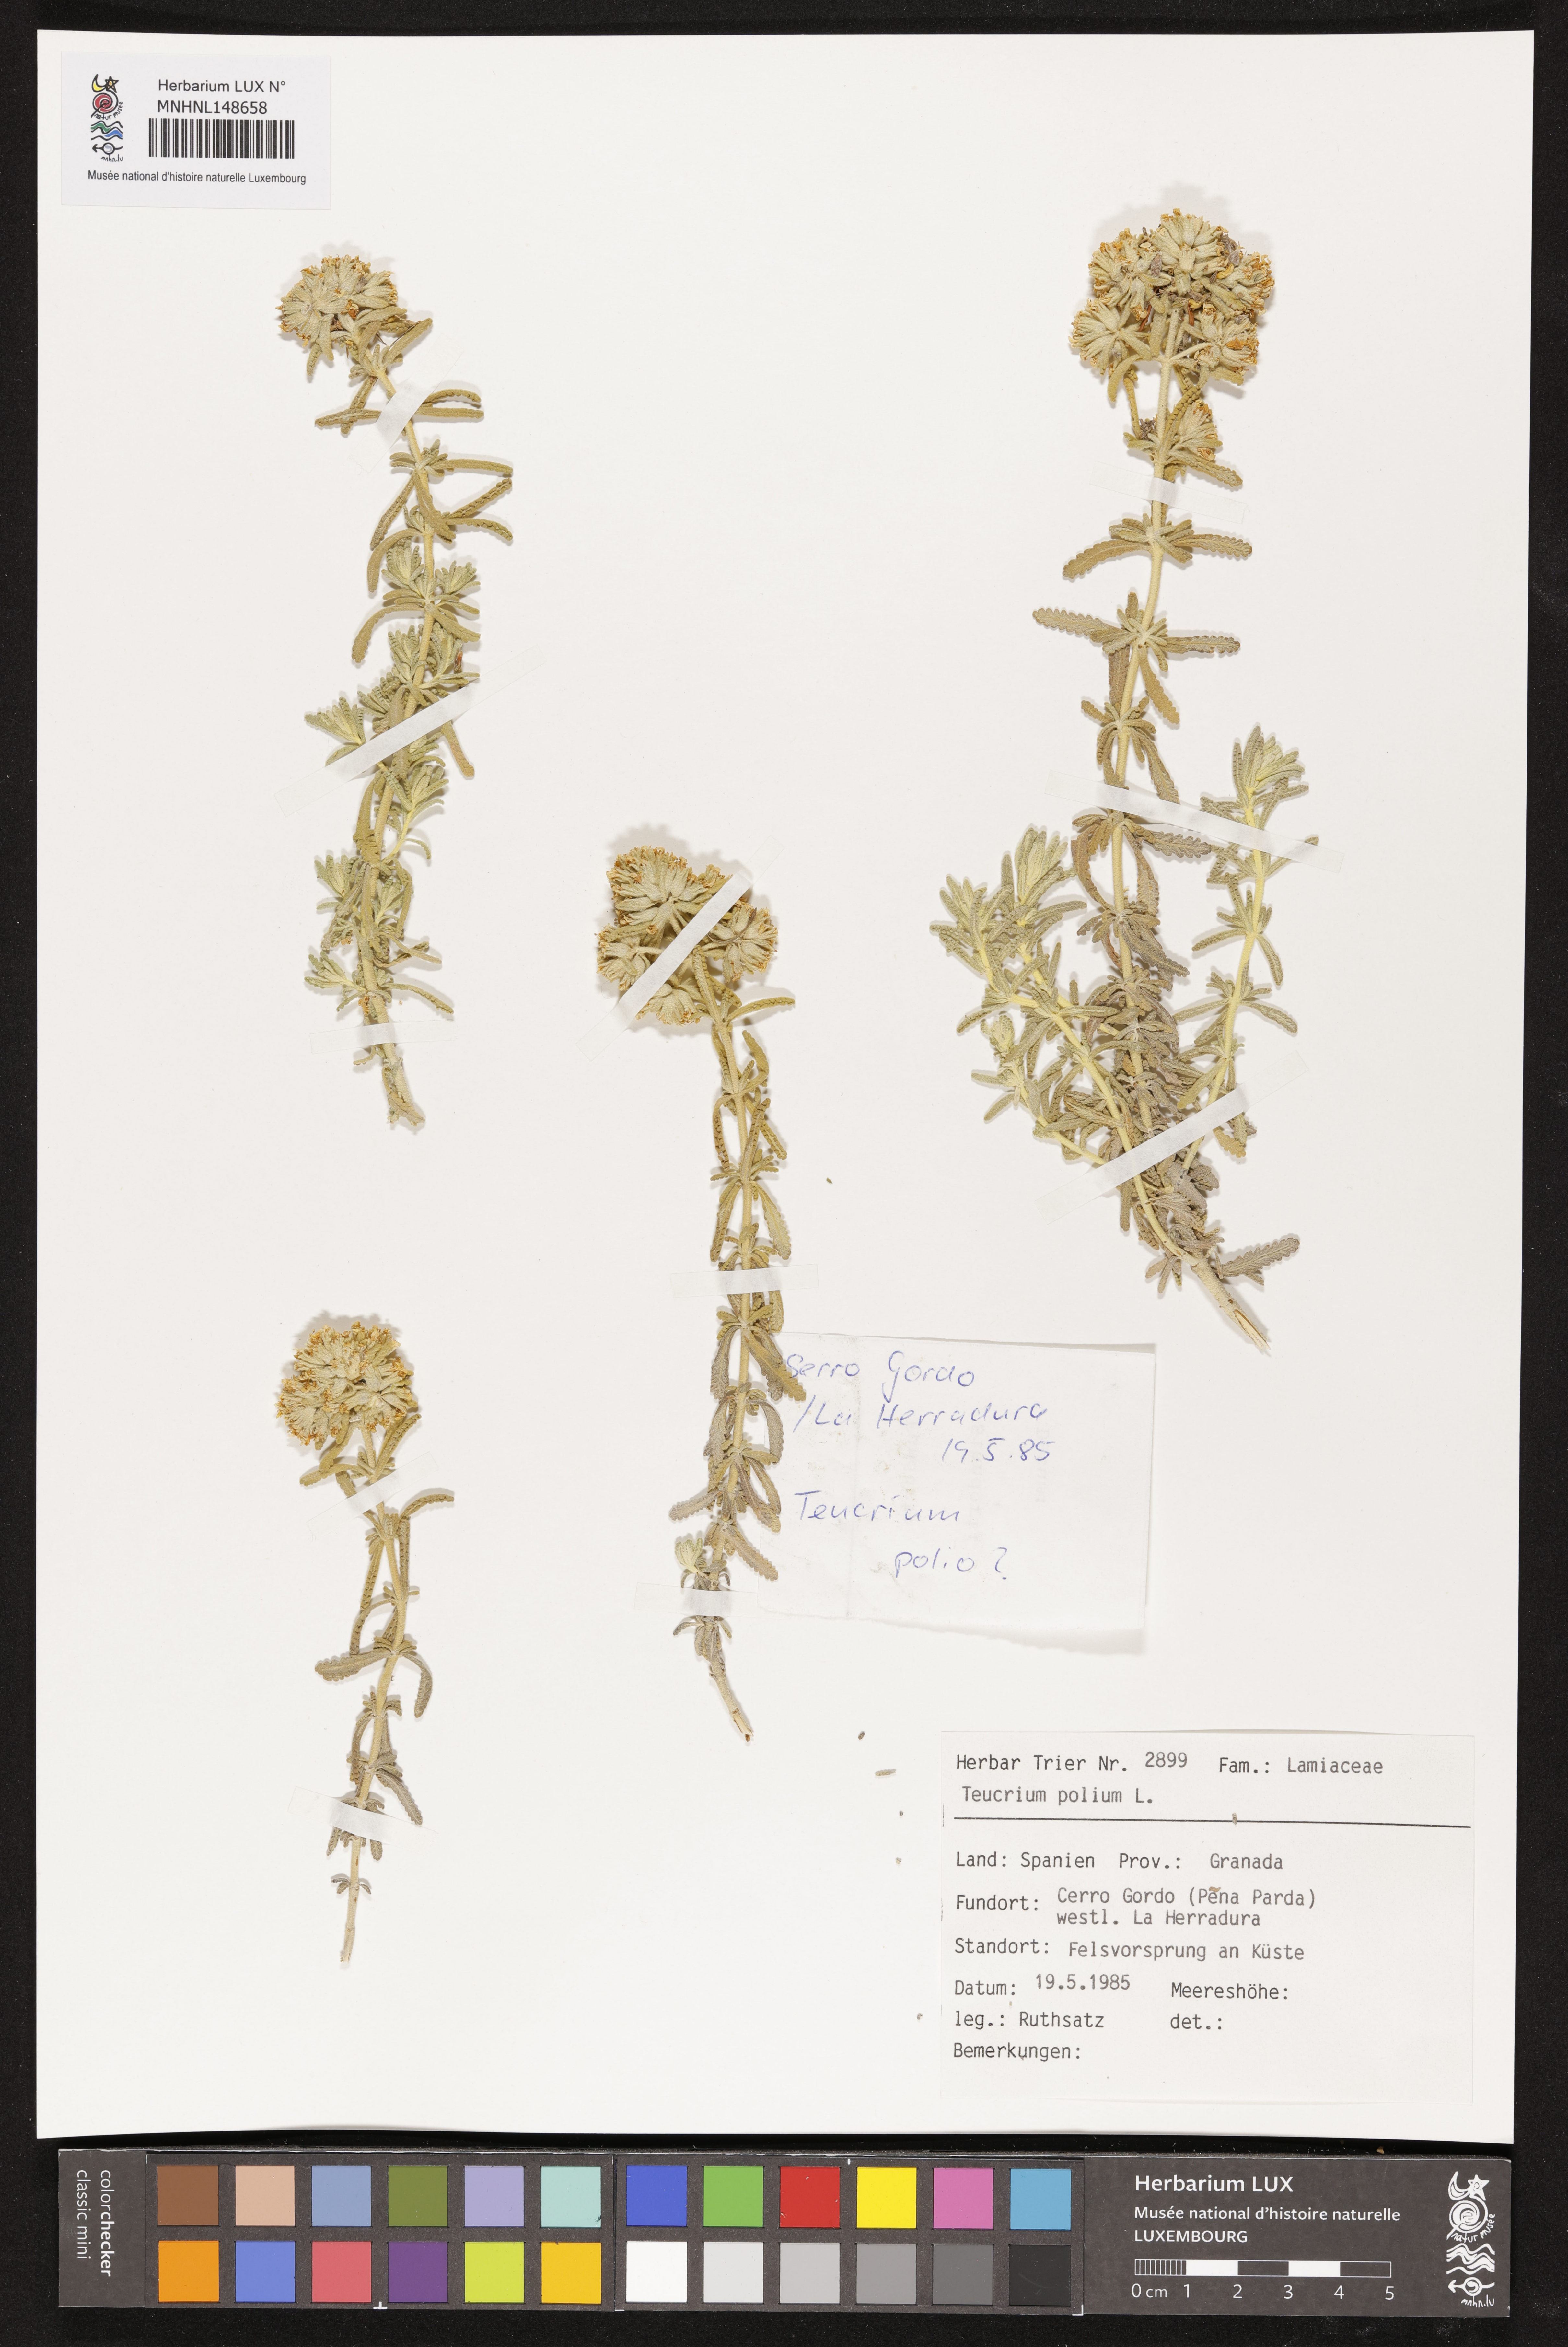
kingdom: Plantae
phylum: Tracheophyta
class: Magnoliopsida
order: Lamiales
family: Lamiaceae
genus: Teucrium
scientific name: Teucrium polium
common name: Poley
